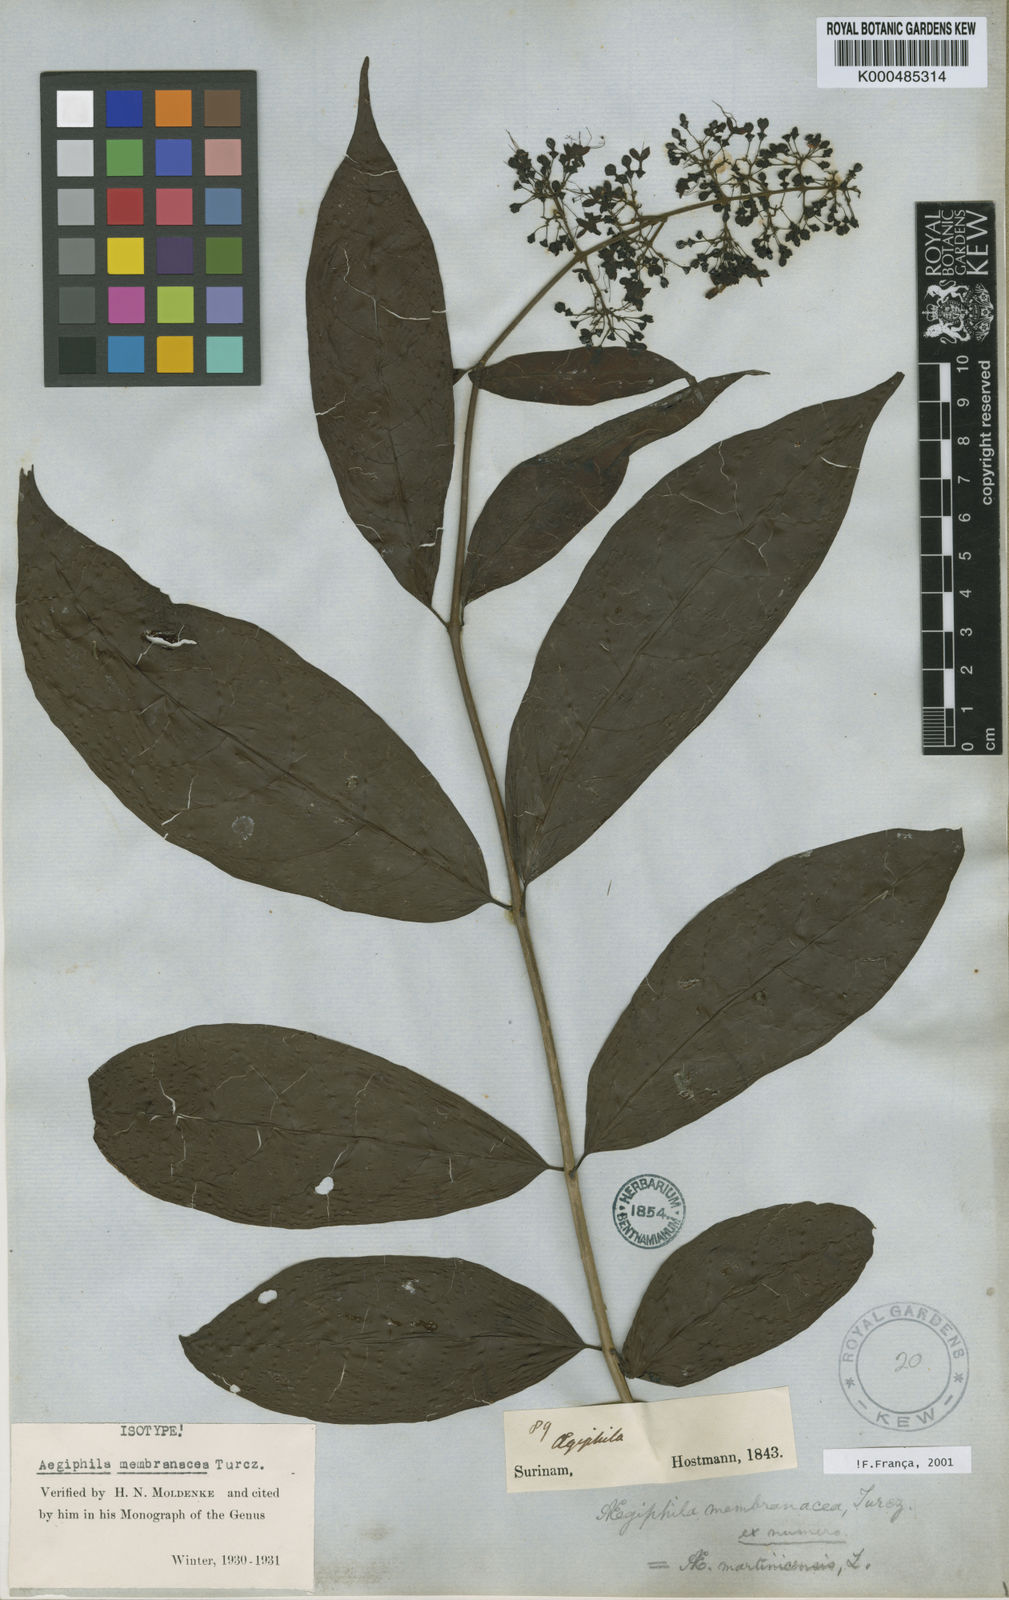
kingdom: Plantae
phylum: Tracheophyta
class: Magnoliopsida
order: Lamiales
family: Lamiaceae
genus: Aegiphila
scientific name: Aegiphila membranacea
